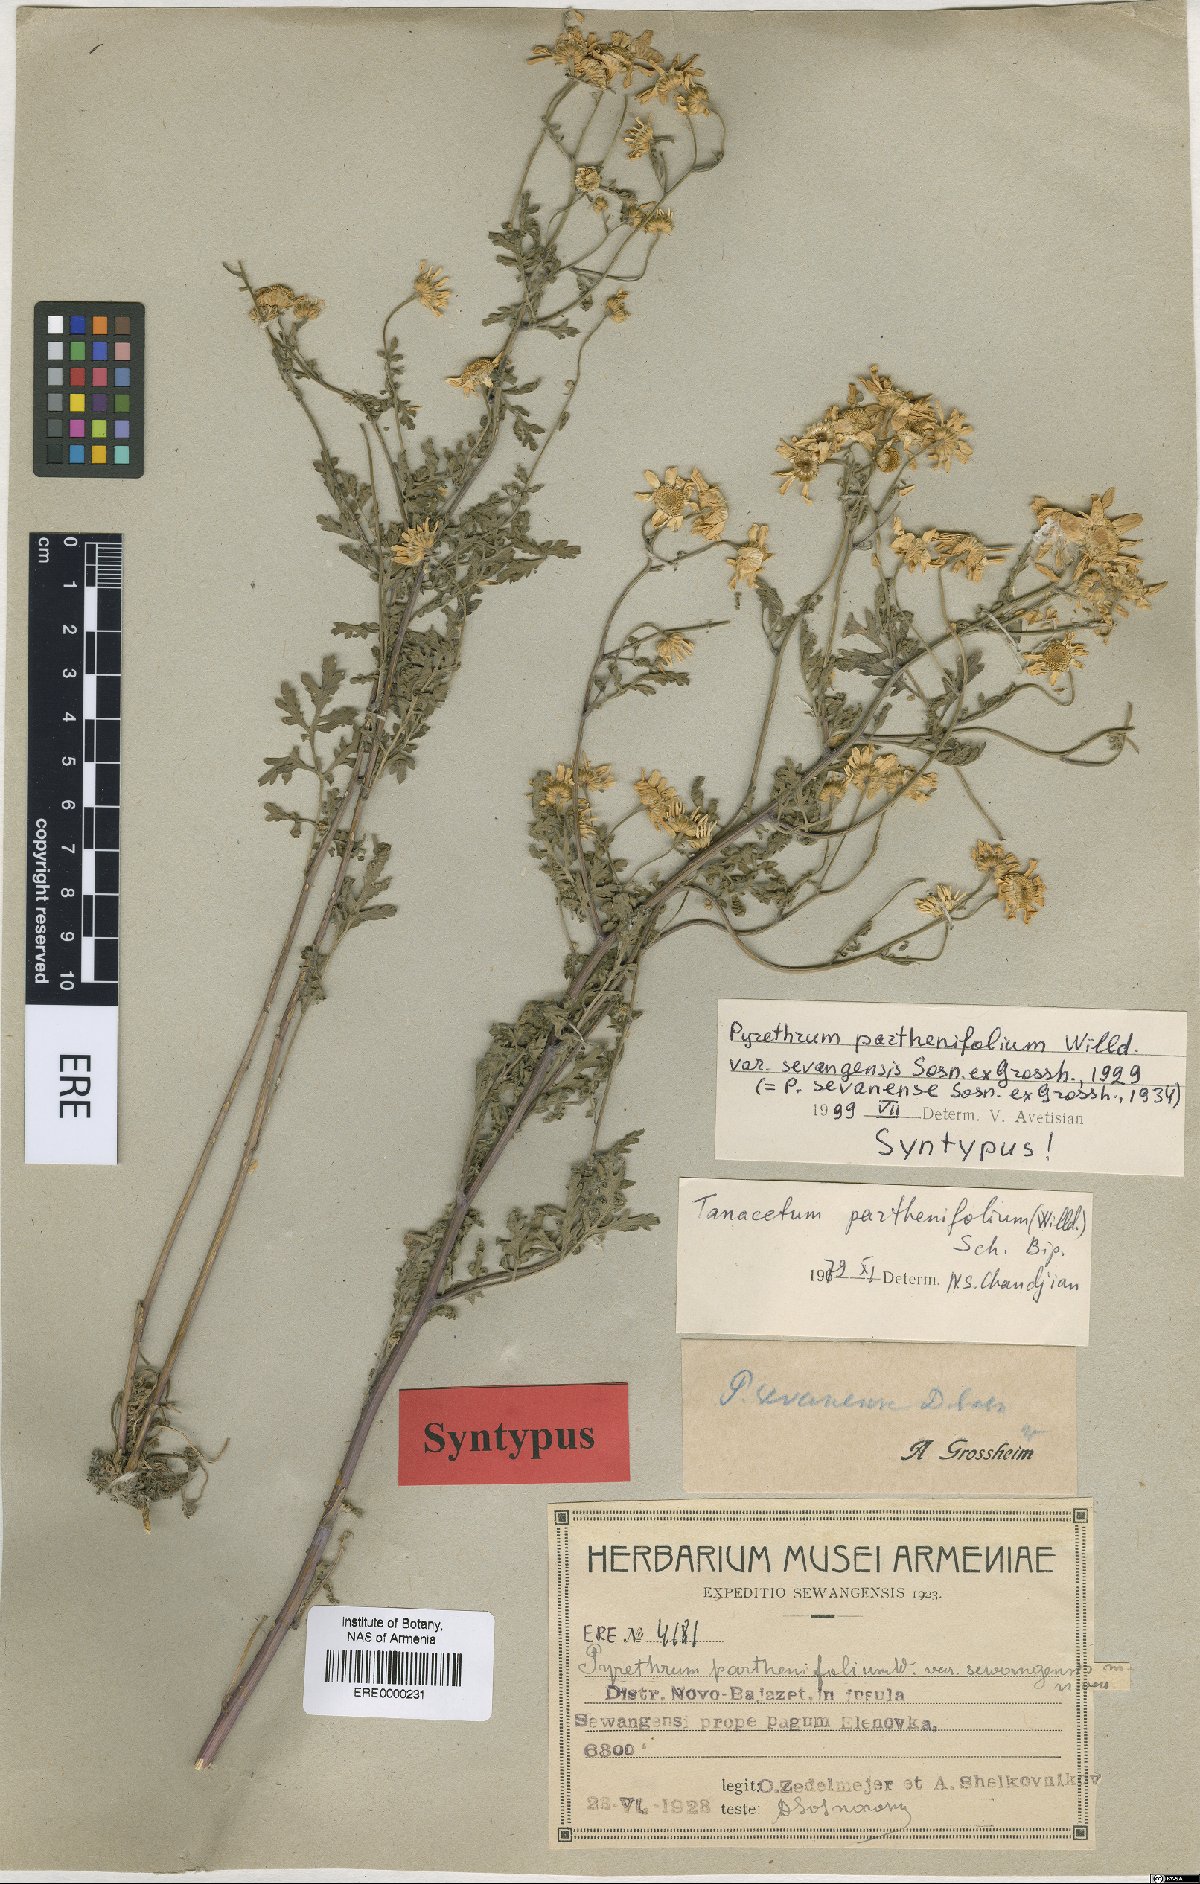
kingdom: Plantae
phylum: Tracheophyta
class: Magnoliopsida
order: Asterales
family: Asteraceae
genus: Tanacetum
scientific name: Tanacetum partheniifolium
